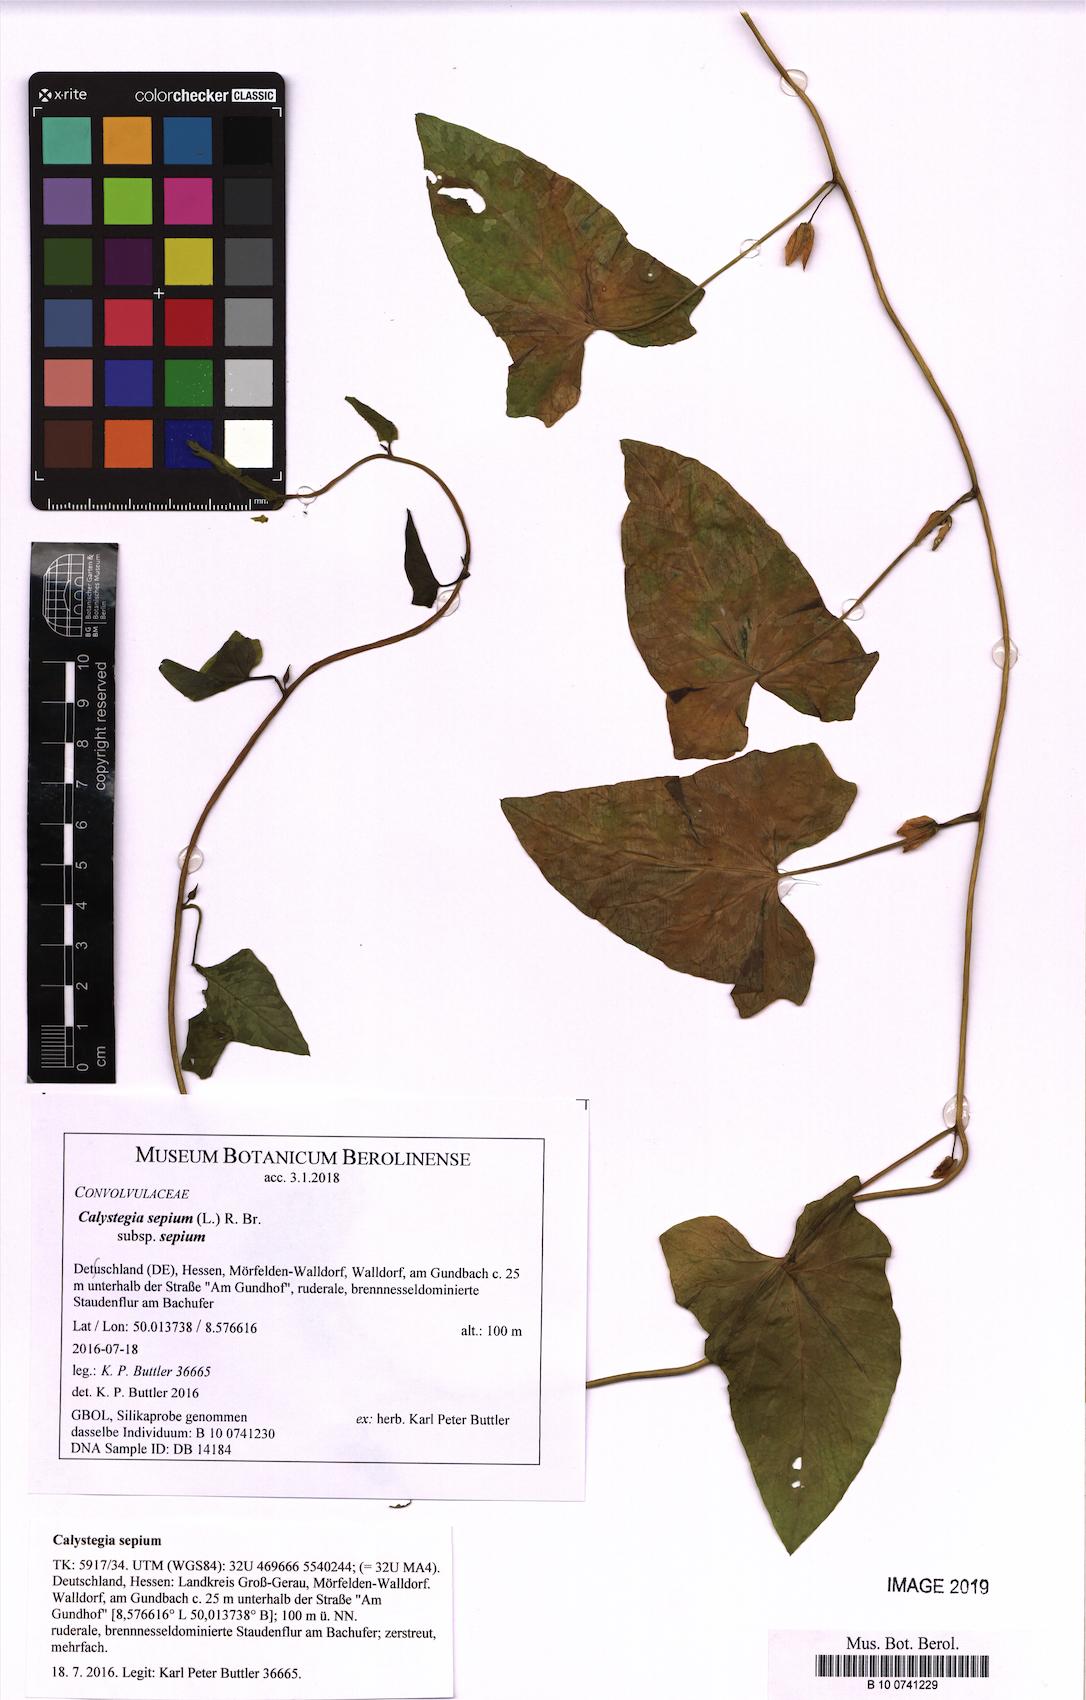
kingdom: Plantae
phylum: Tracheophyta
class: Magnoliopsida
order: Solanales
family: Convolvulaceae
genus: Calystegia
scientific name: Calystegia sepium
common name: Hedge bindweed
